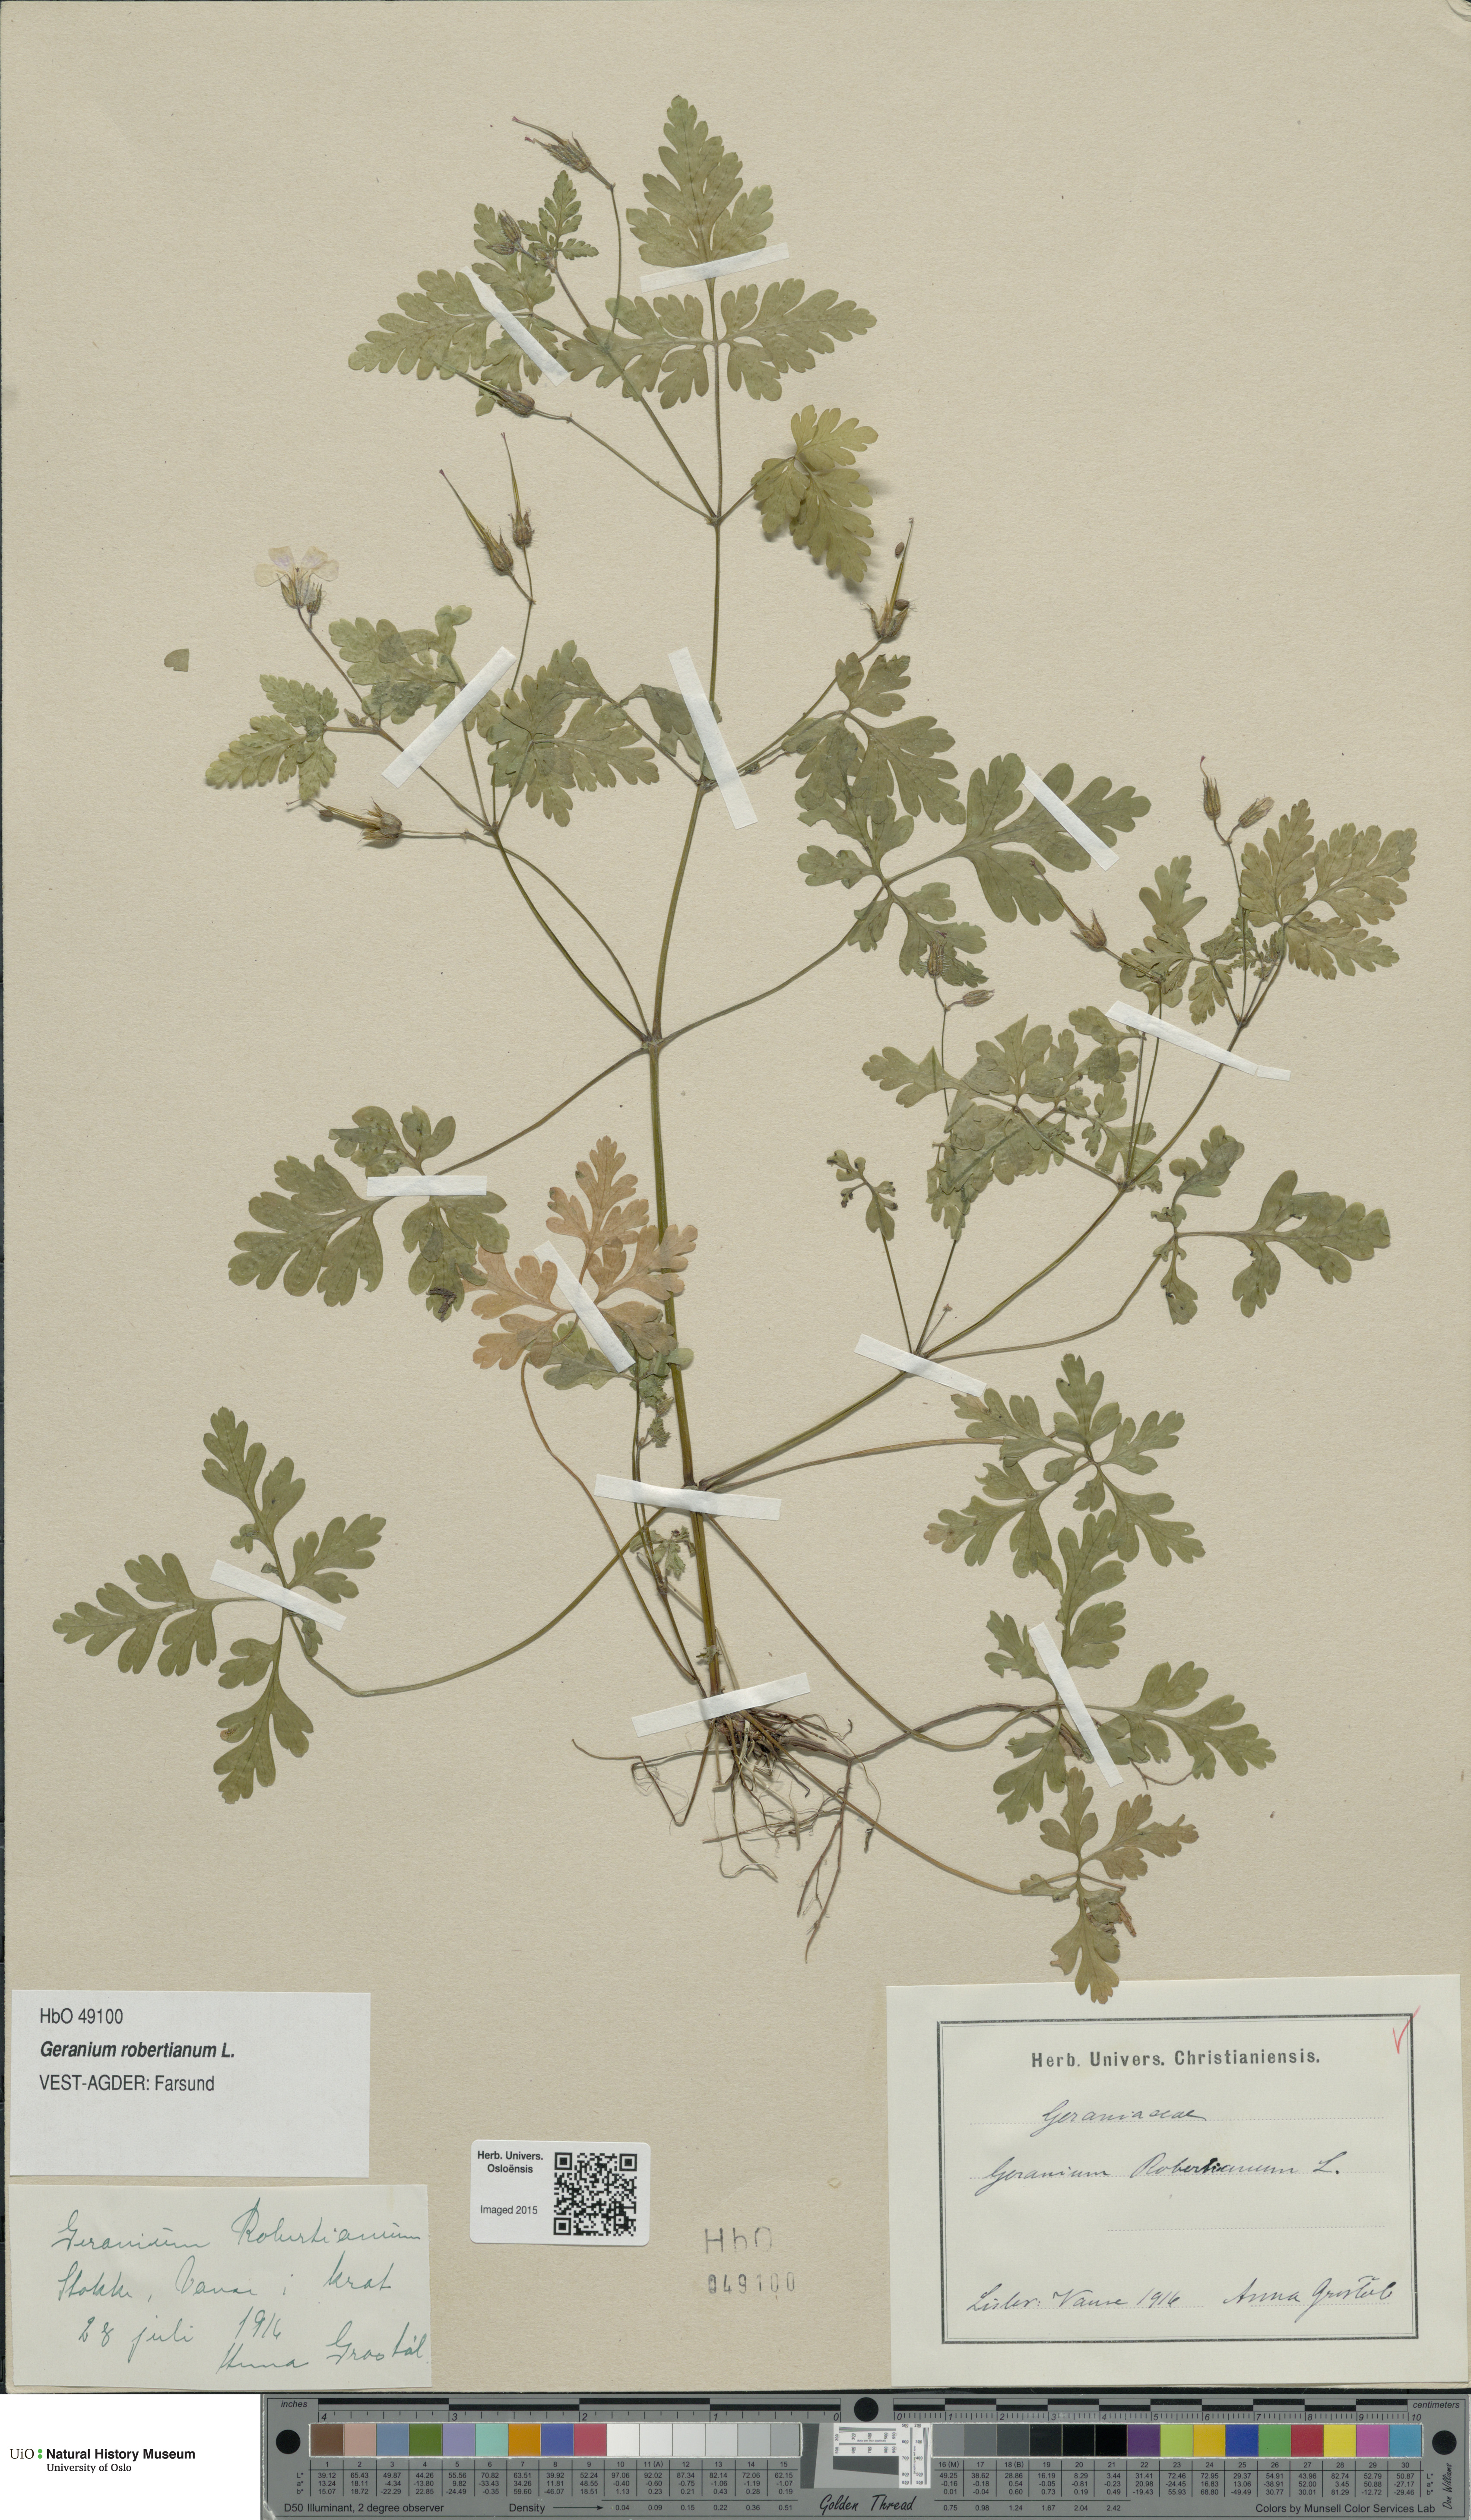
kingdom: Plantae
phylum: Tracheophyta
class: Magnoliopsida
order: Geraniales
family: Geraniaceae
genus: Geranium
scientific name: Geranium robertianum
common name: Herb-robert
